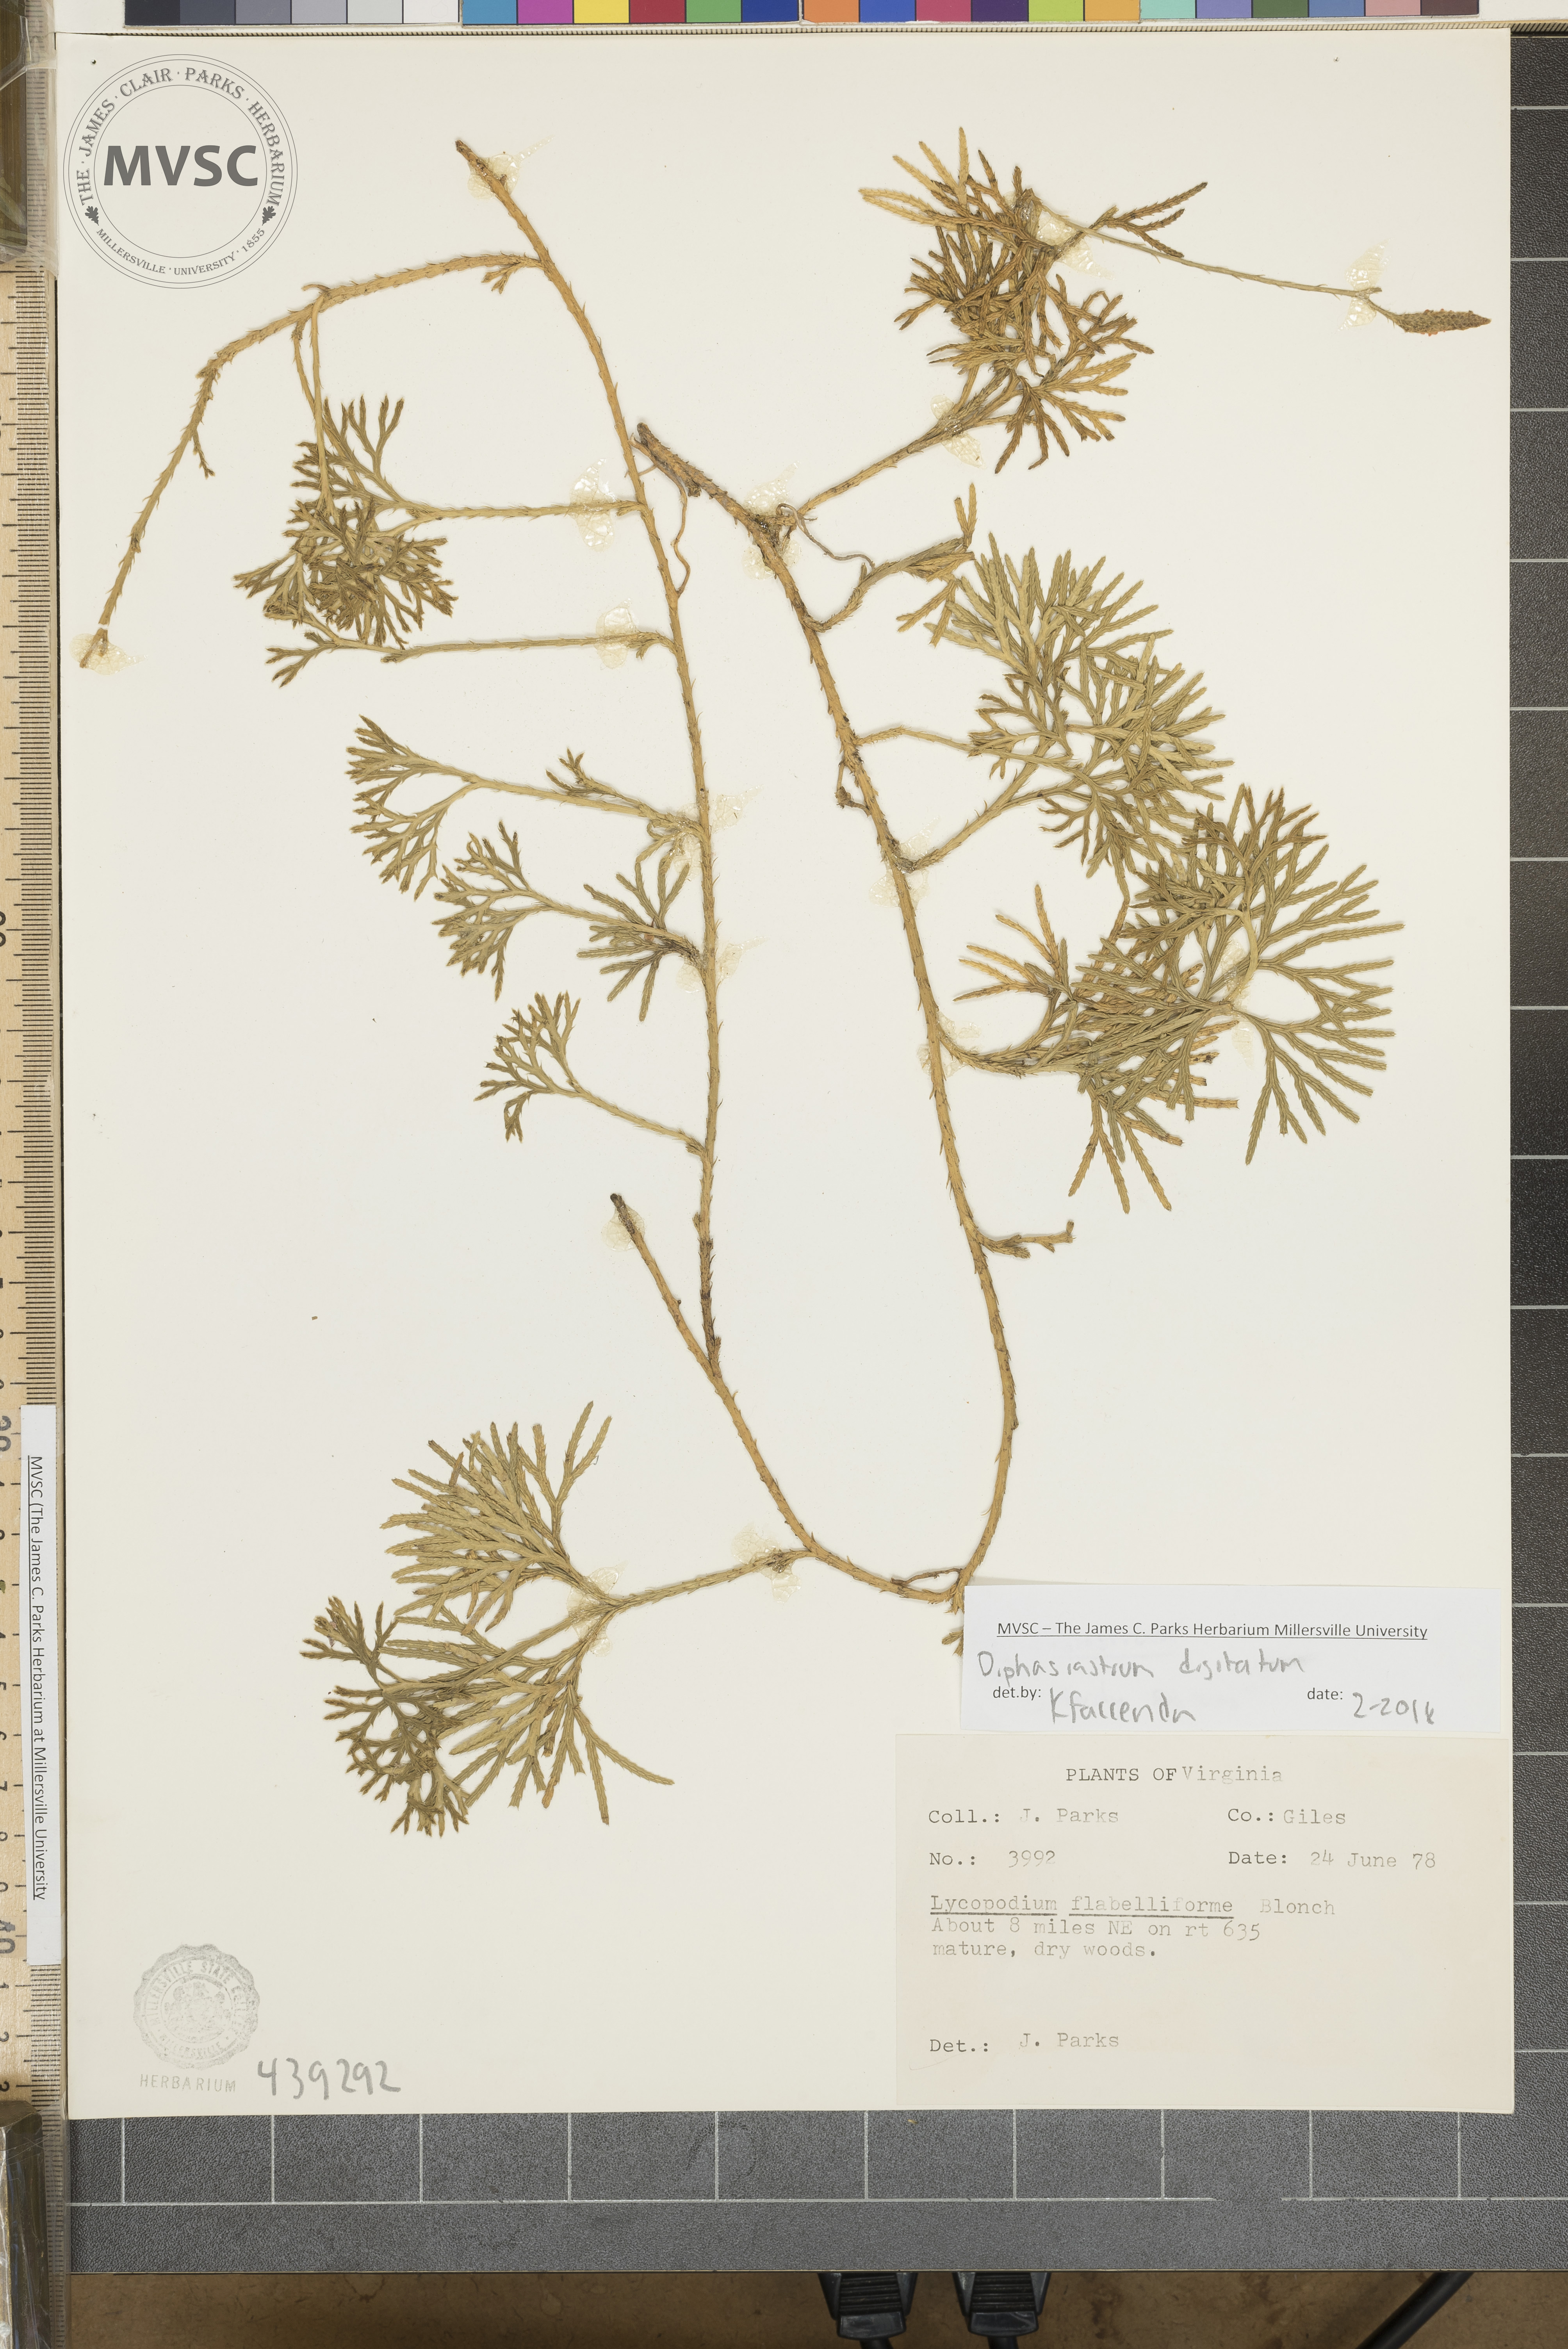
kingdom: Plantae
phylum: Tracheophyta
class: Lycopodiopsida
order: Lycopodiales
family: Lycopodiaceae
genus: Diphasiastrum
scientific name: Diphasiastrum digitatum
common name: Southern running-pine
